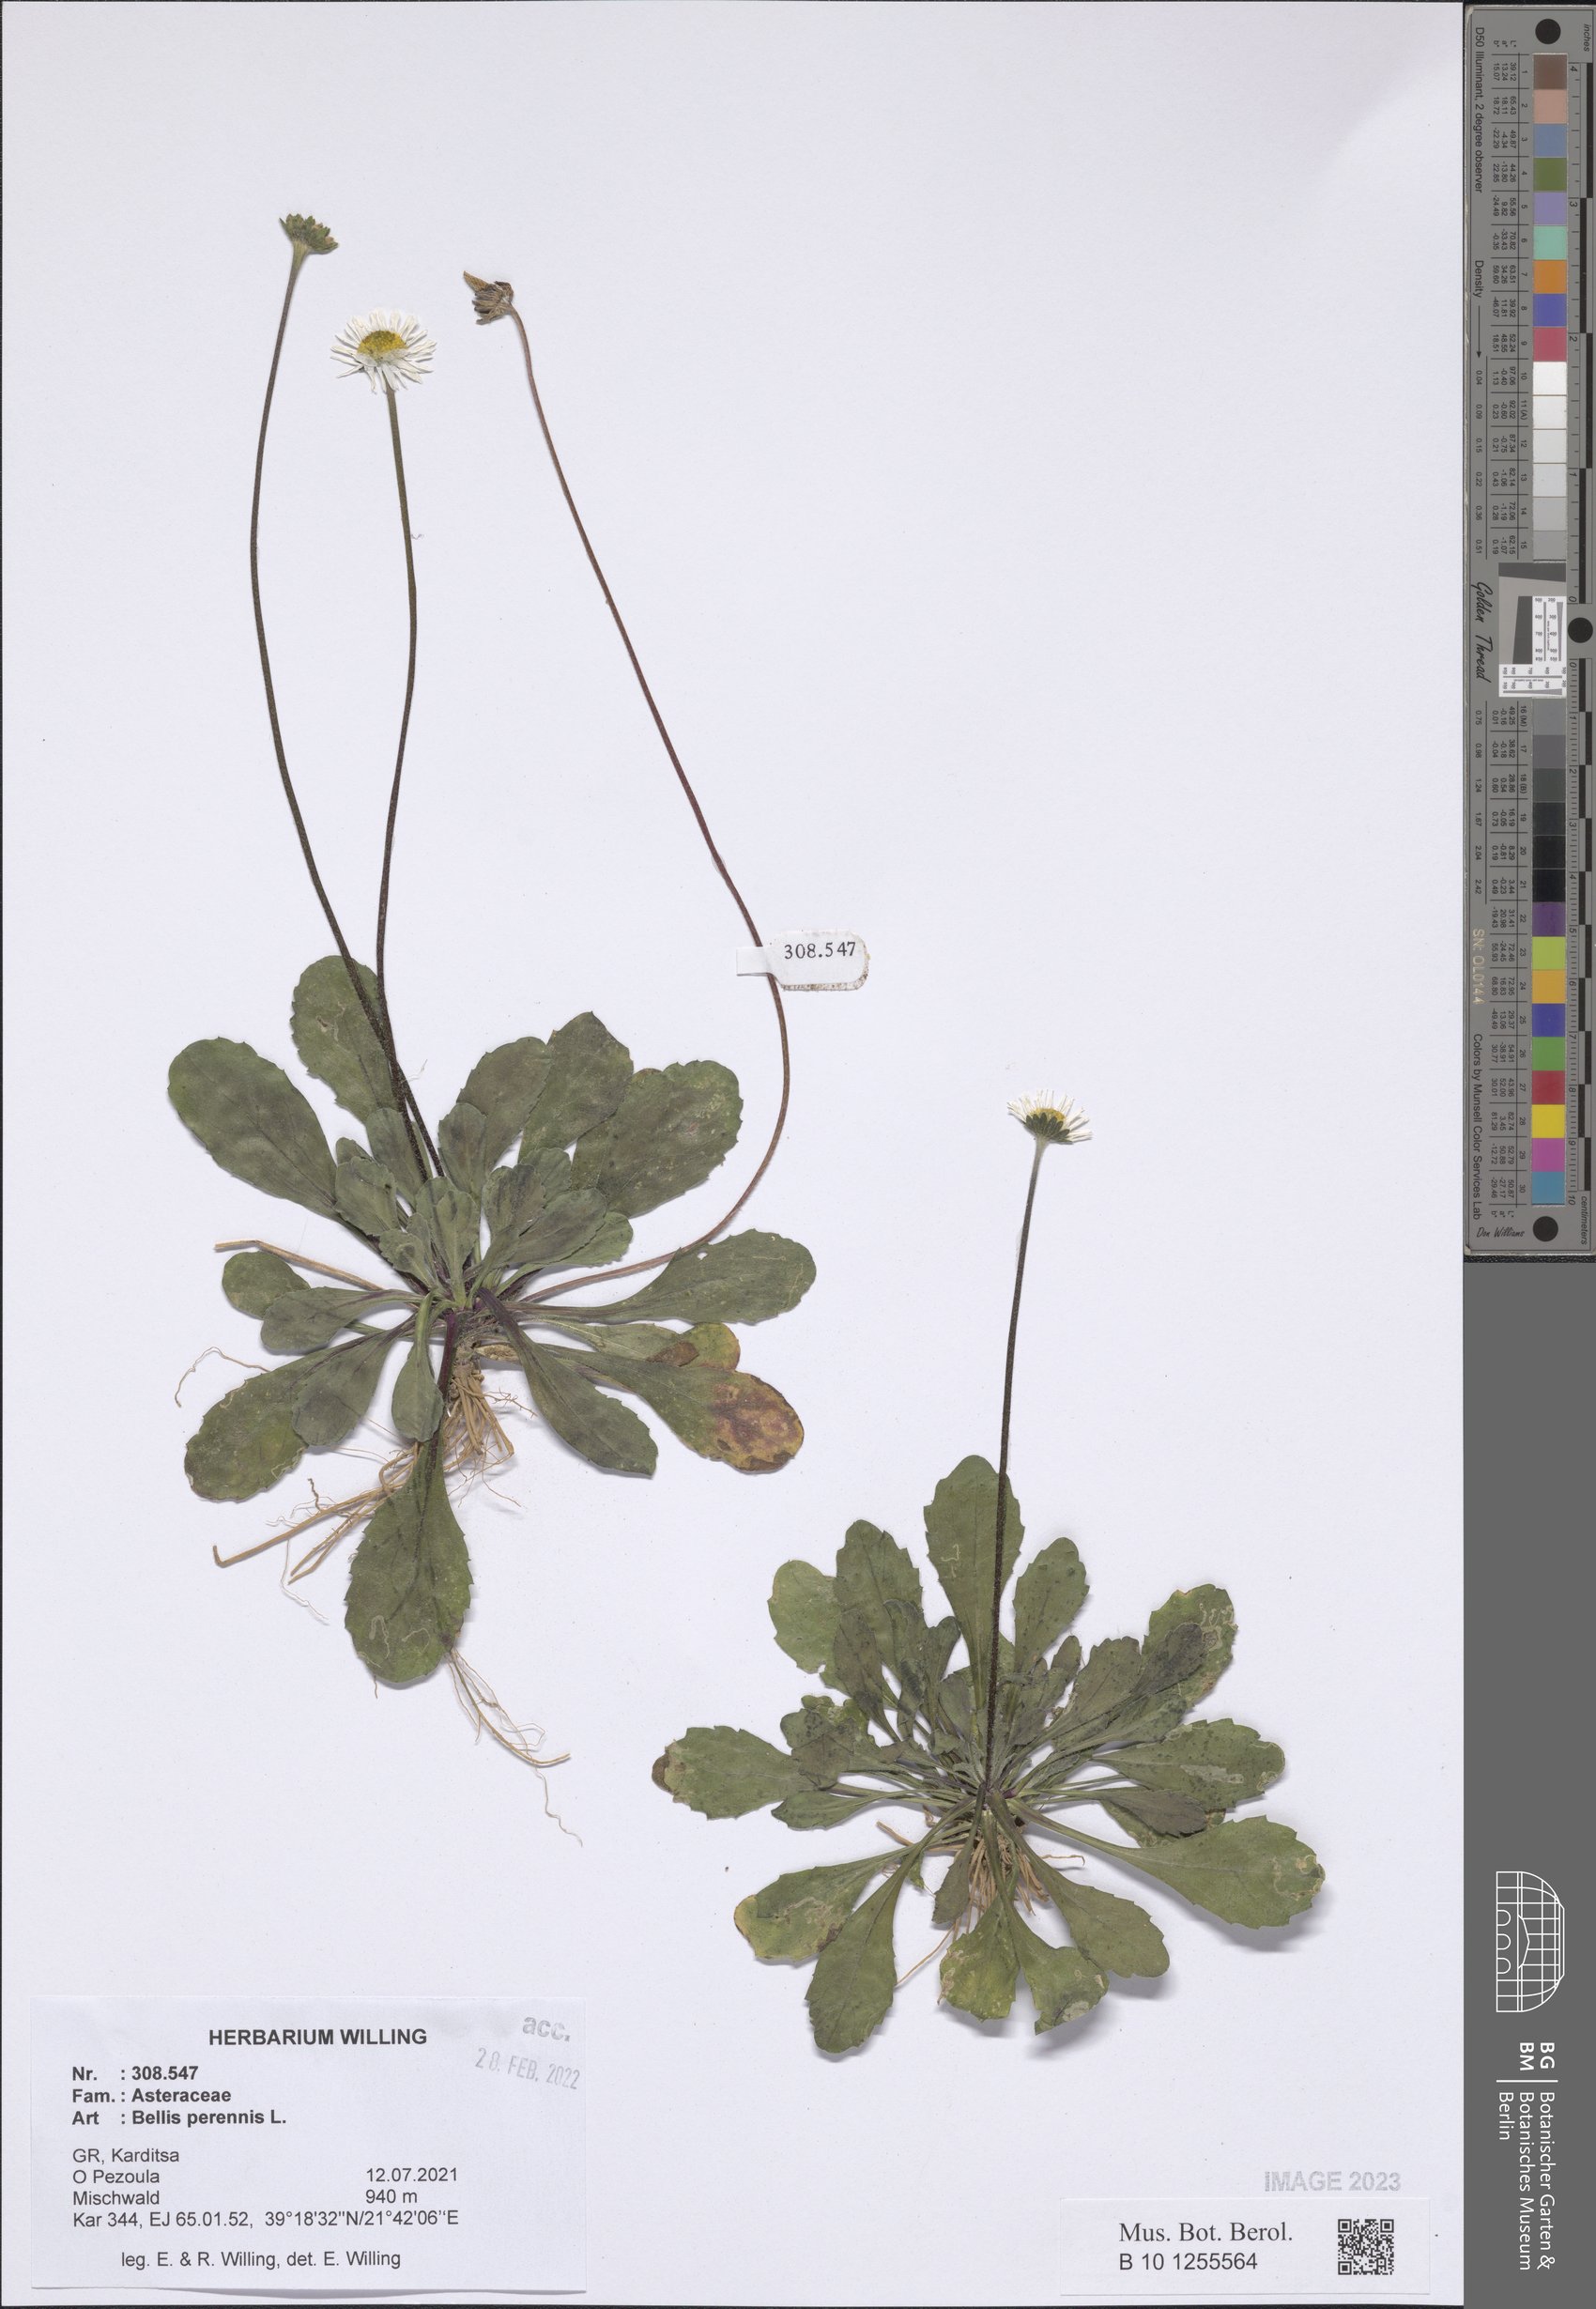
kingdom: Plantae
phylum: Tracheophyta
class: Magnoliopsida
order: Asterales
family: Asteraceae
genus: Bellis
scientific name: Bellis perennis
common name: Lawndaisy
